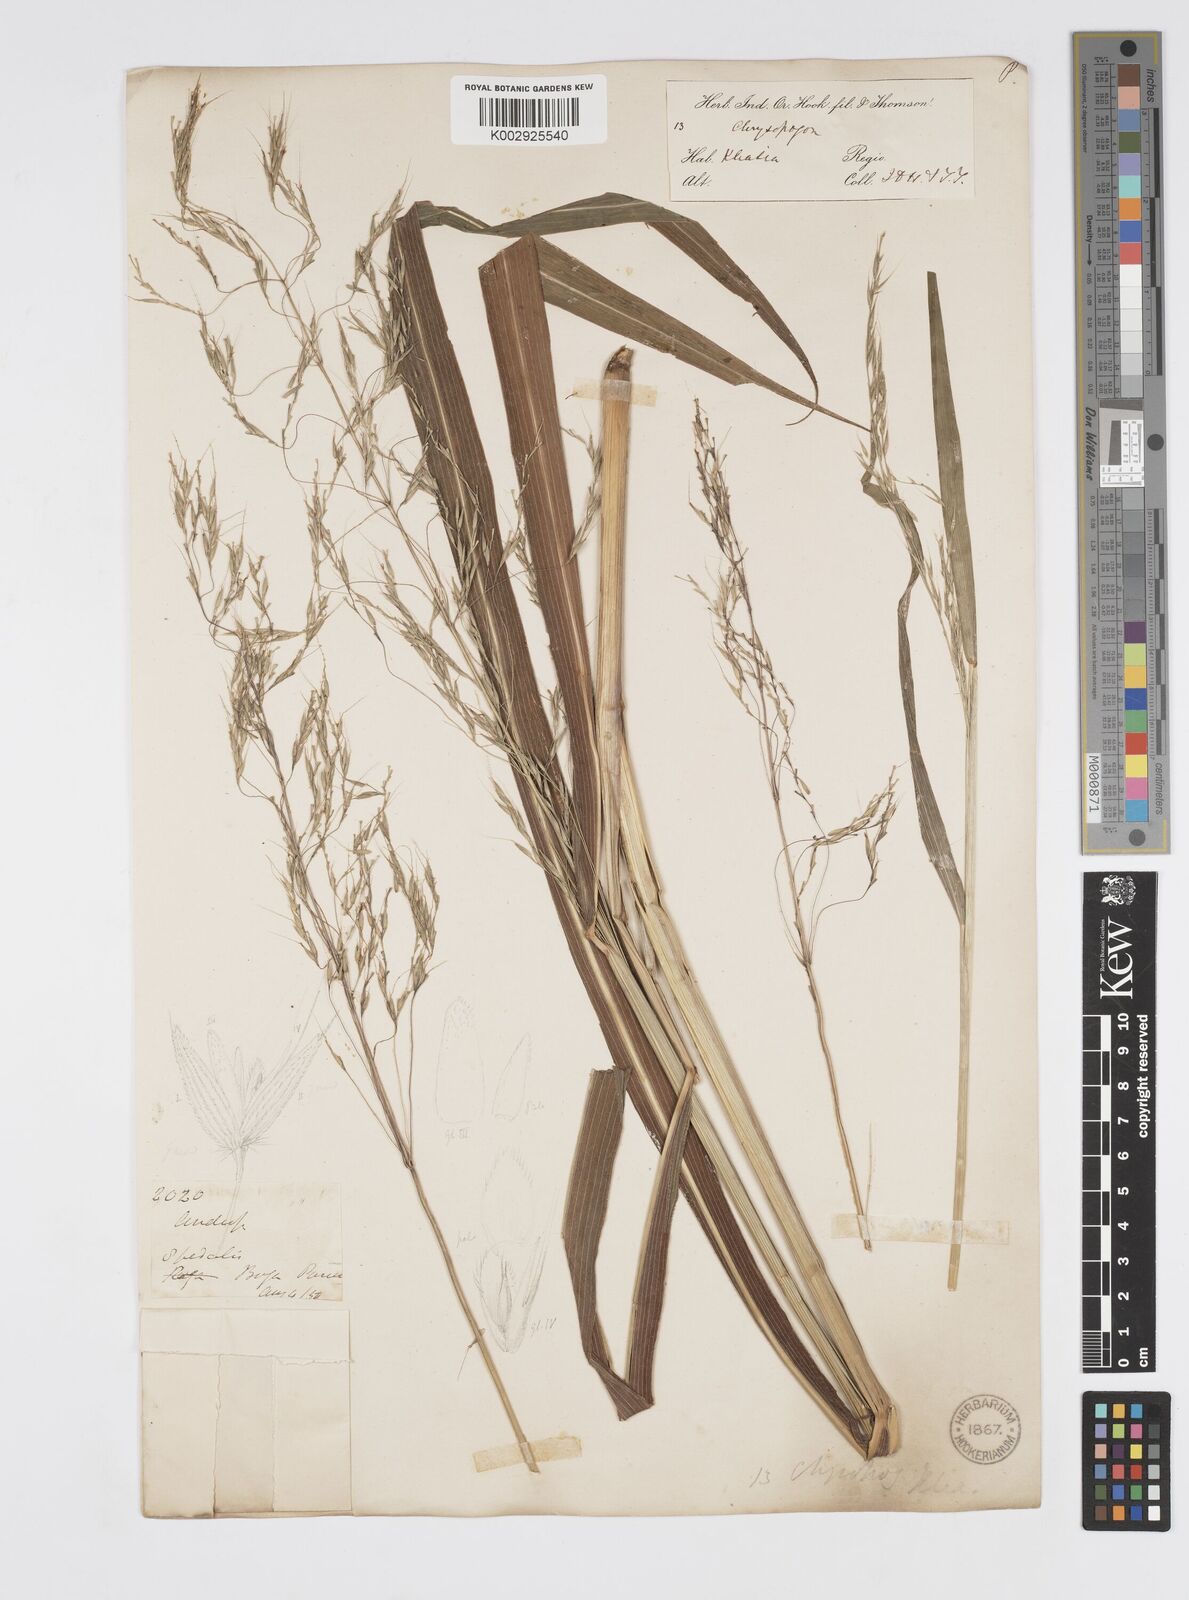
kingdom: Plantae
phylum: Tracheophyta
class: Liliopsida
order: Poales
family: Poaceae
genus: Spodiopogon
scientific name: Spodiopogon cotulifer
